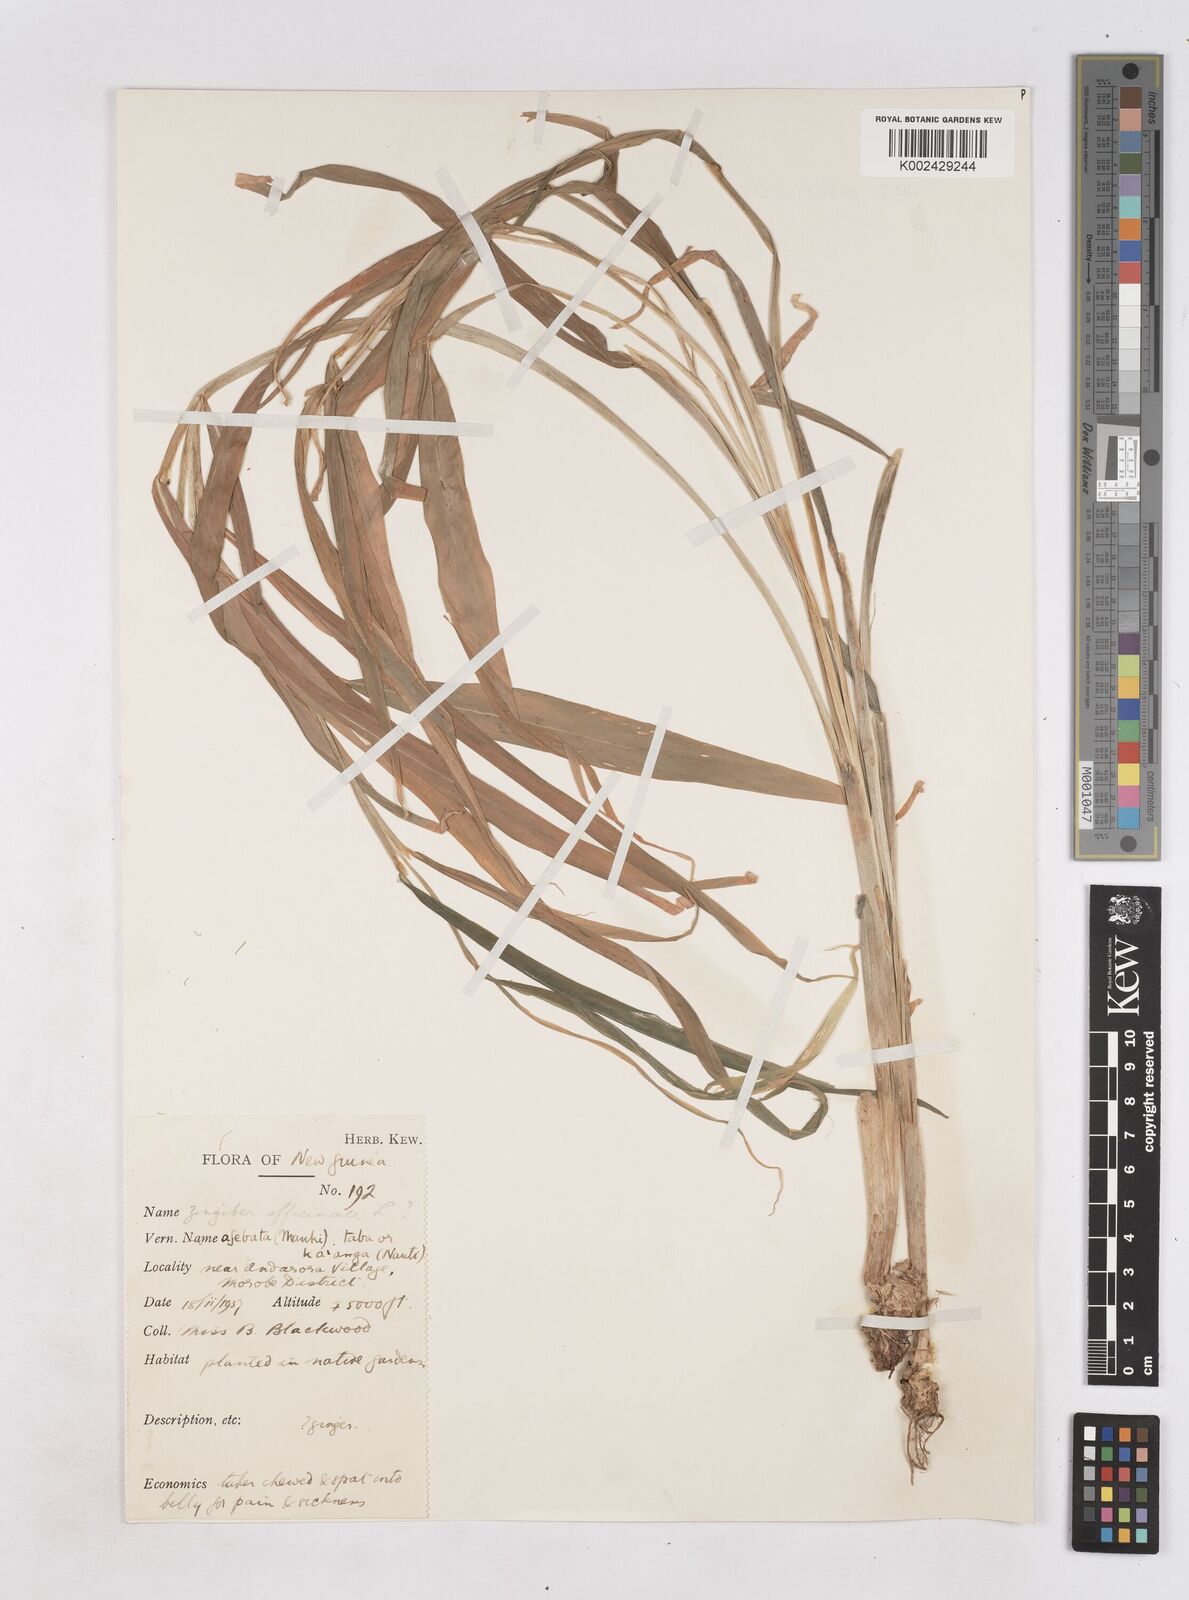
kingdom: Plantae
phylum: Tracheophyta
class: Liliopsida
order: Zingiberales
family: Zingiberaceae
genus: Zingiber
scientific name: Zingiber officinale
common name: Ginger
